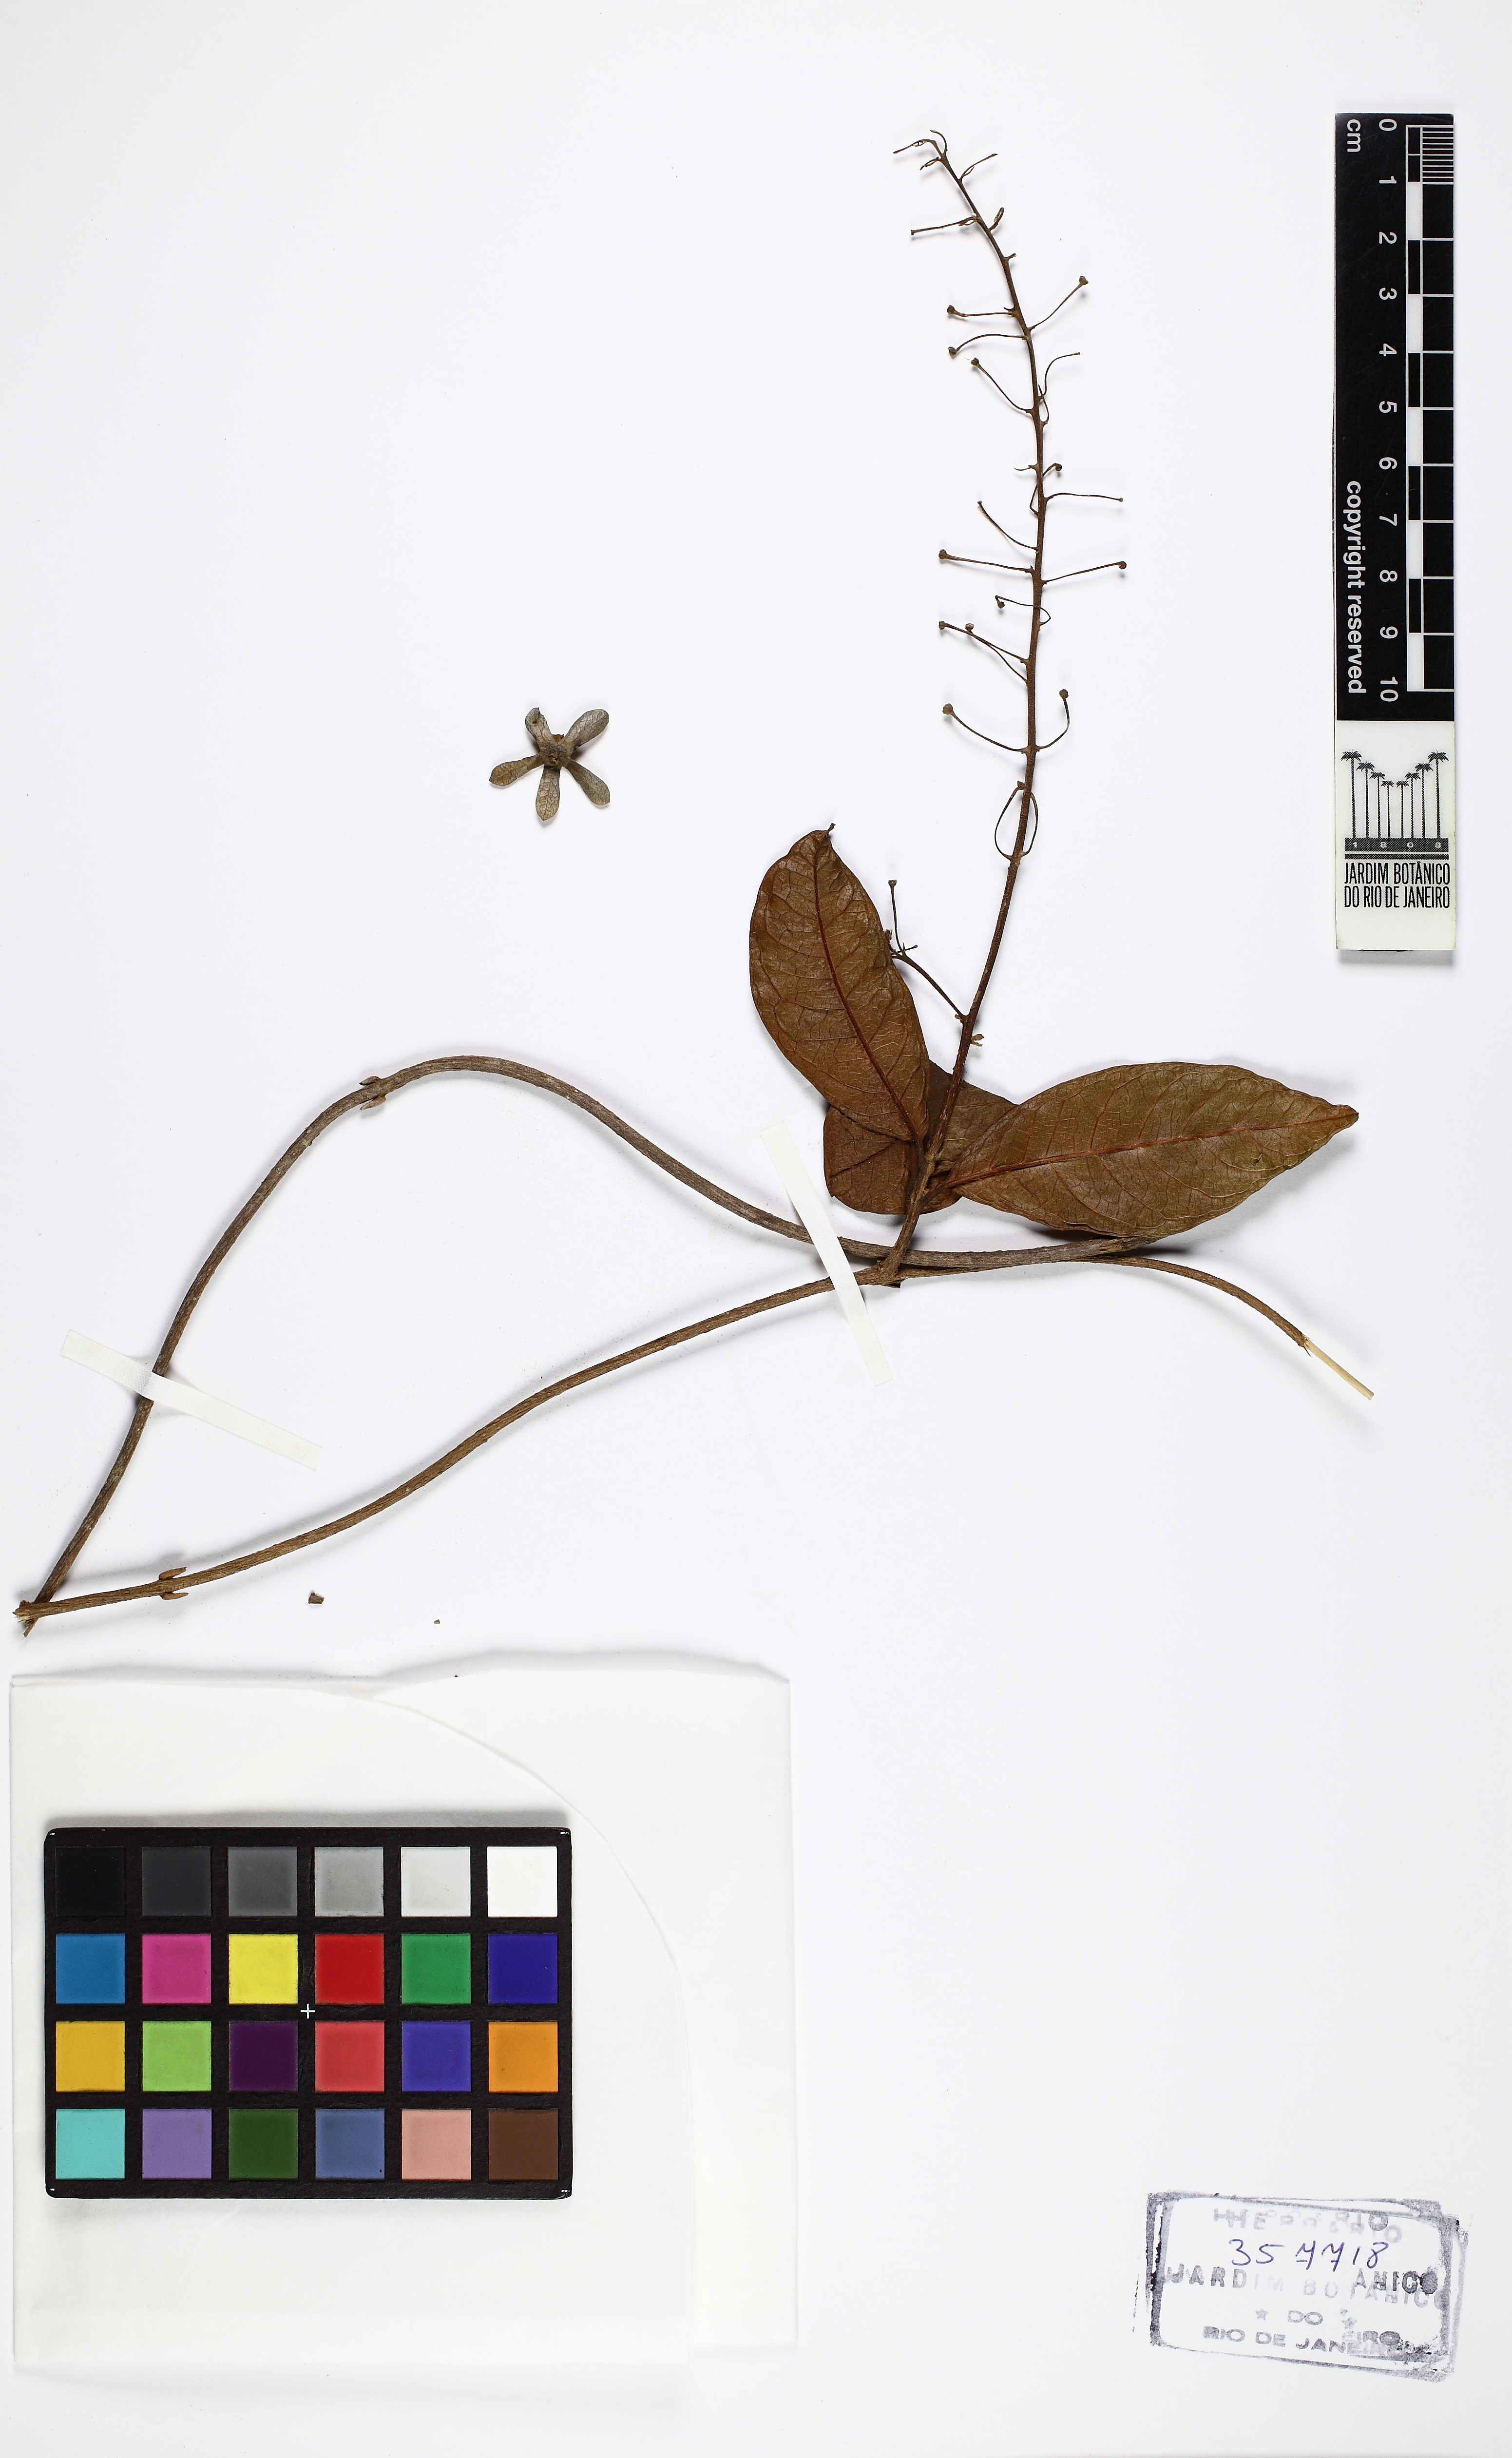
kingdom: Plantae
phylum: Tracheophyta
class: Magnoliopsida
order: Lamiales
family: Verbenaceae
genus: Petrea
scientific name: Petrea volubilis
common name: Queen's-wreath
